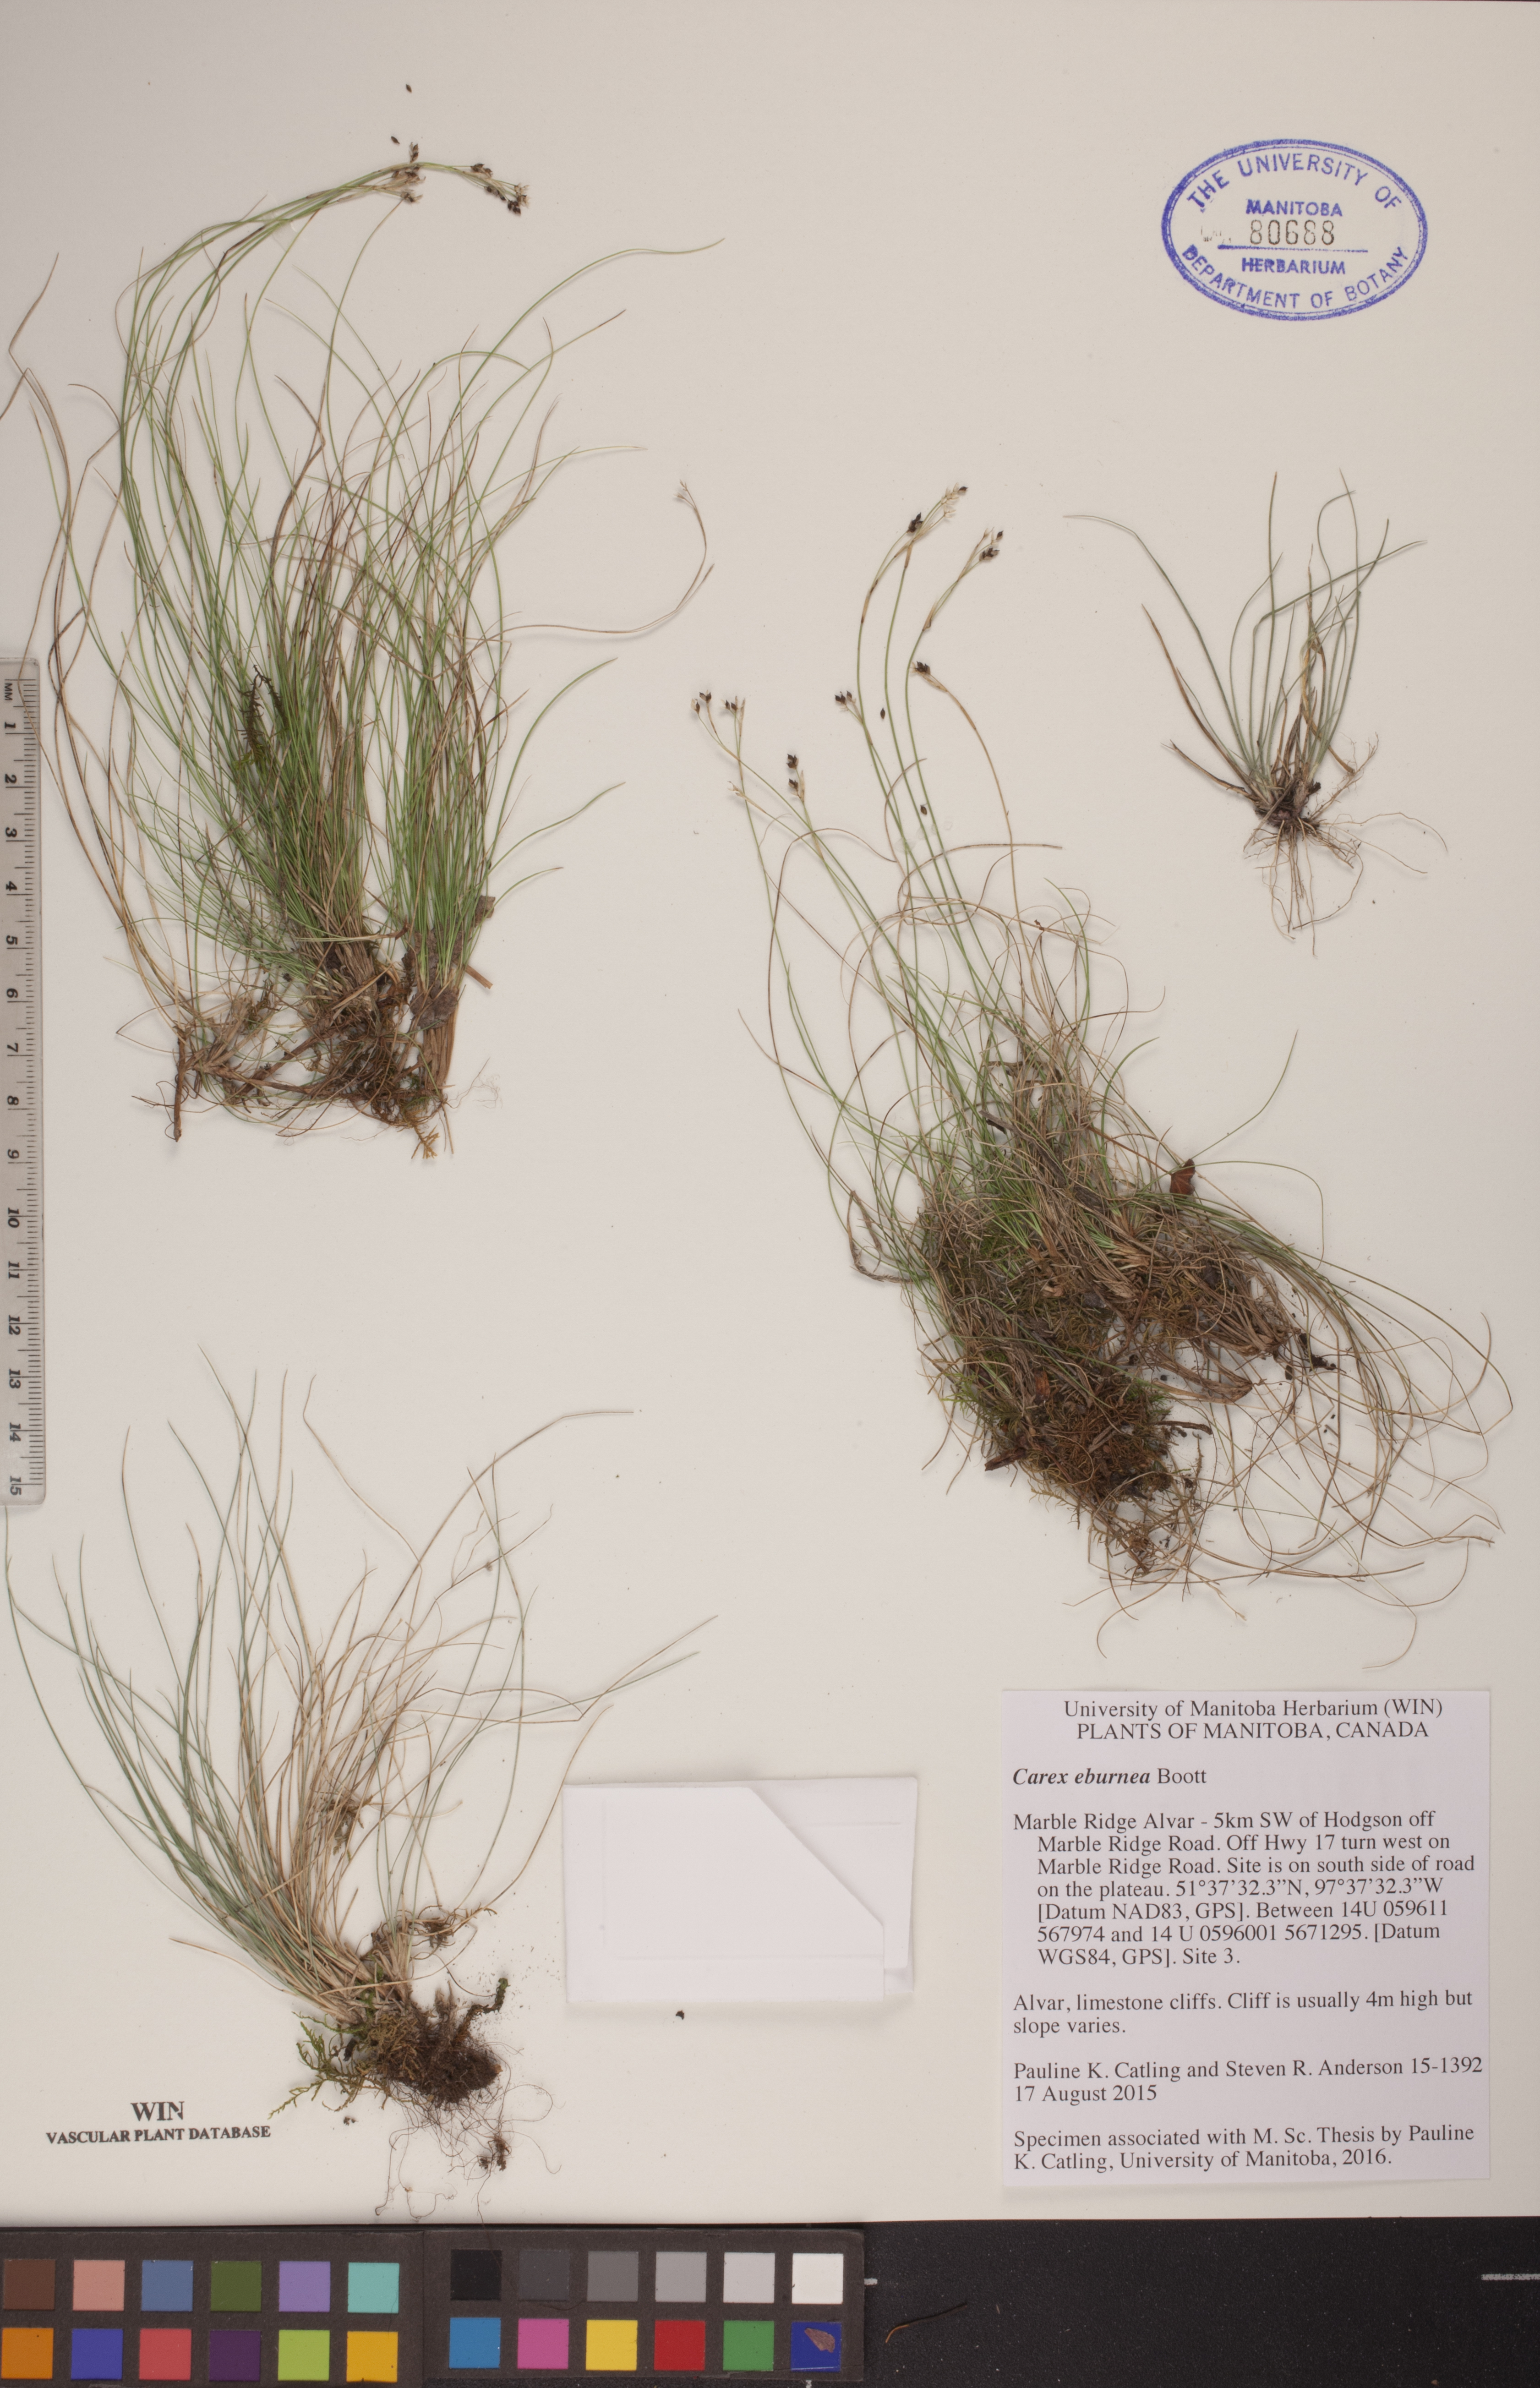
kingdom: Plantae
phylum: Tracheophyta
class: Liliopsida
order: Poales
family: Cyperaceae
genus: Carex
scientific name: Carex eburnea
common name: Bristle-leaved sedge
